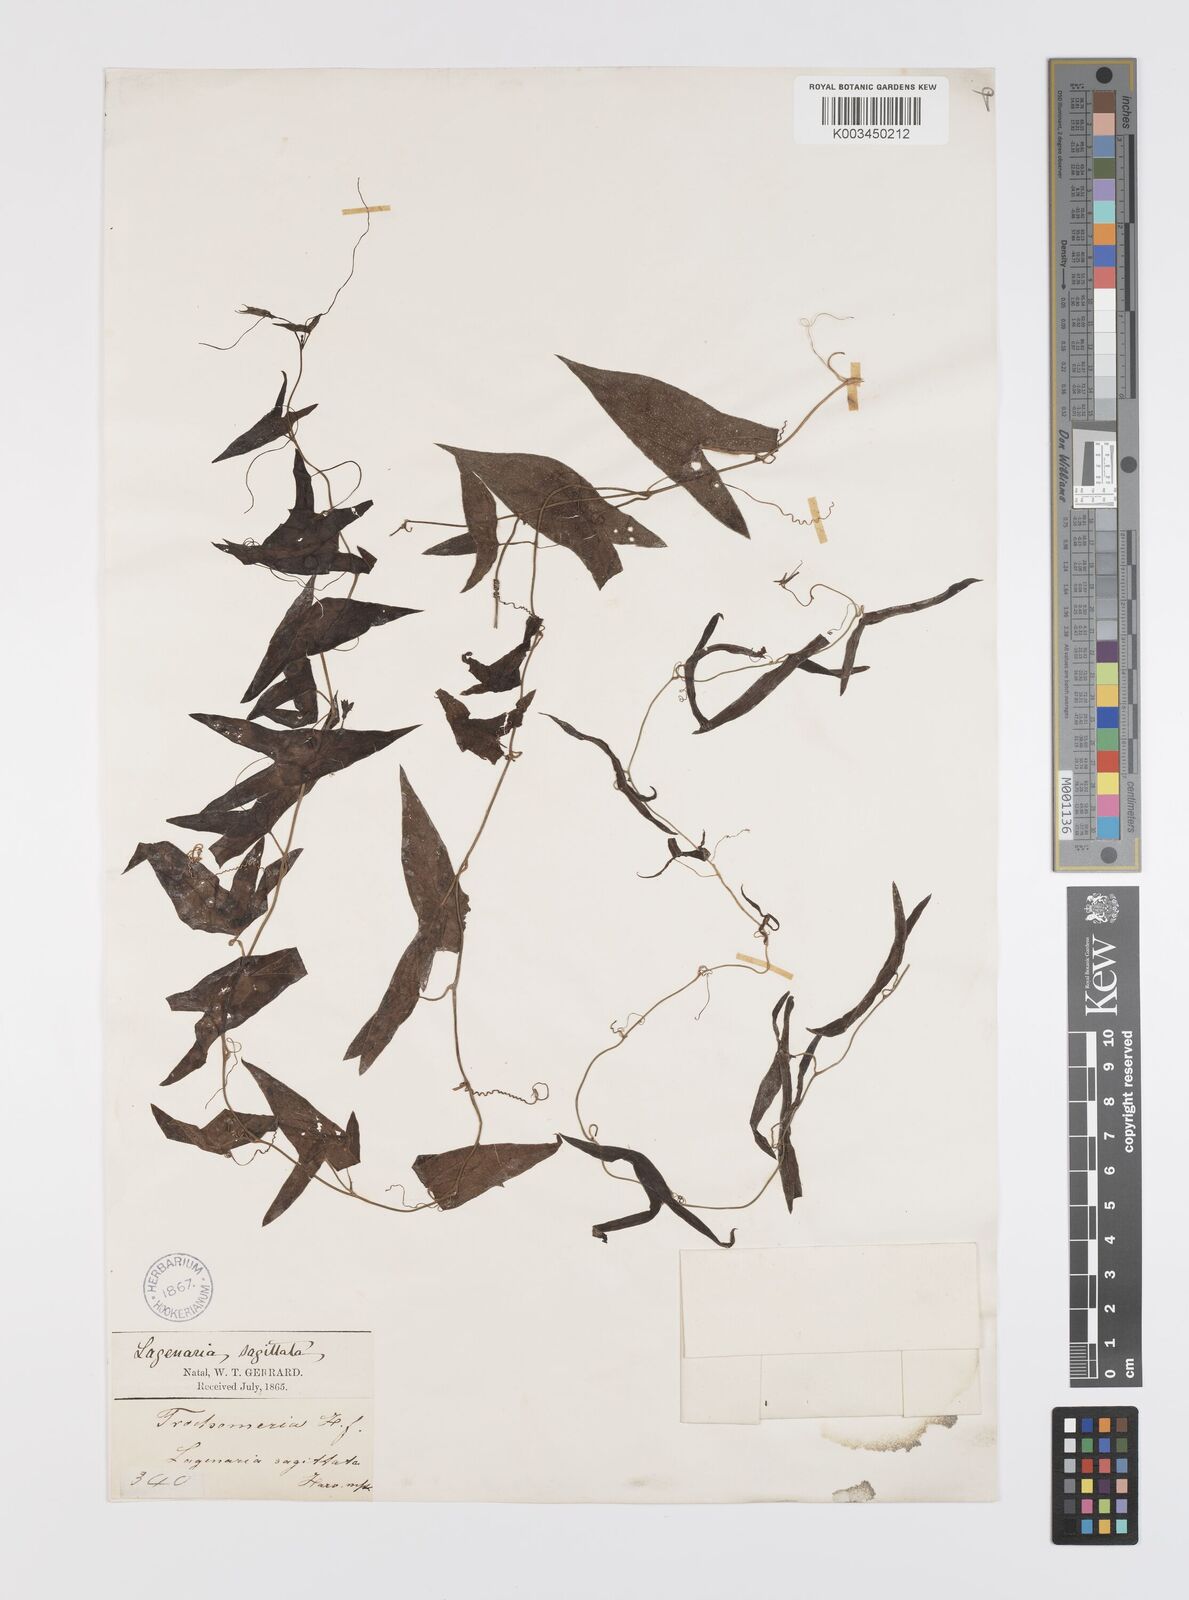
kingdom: Plantae
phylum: Tracheophyta
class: Magnoliopsida
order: Cucurbitales
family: Cucurbitaceae
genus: Trochomeria
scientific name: Trochomeria sagittata
